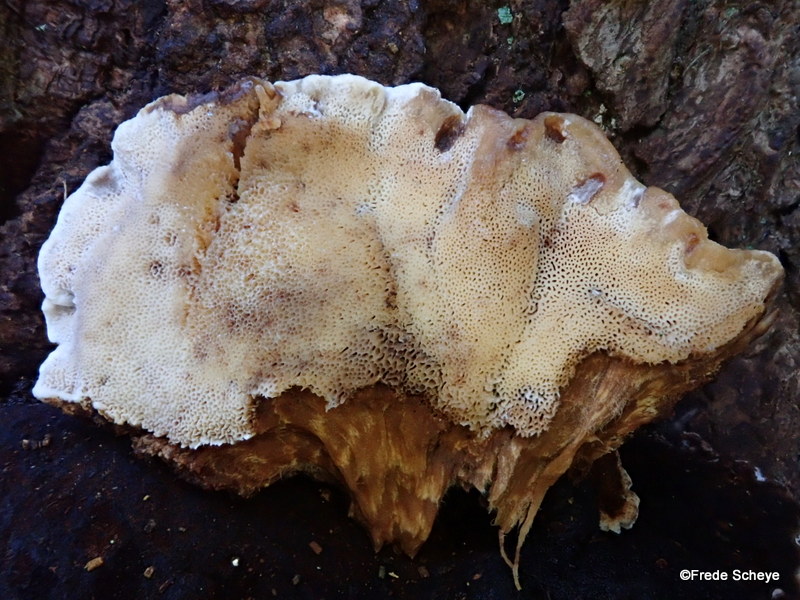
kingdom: Fungi
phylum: Basidiomycota
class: Agaricomycetes
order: Polyporales
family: Ischnodermataceae
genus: Ischnoderma
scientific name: Ischnoderma benzoinum
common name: gran-tjæreporesvamp
